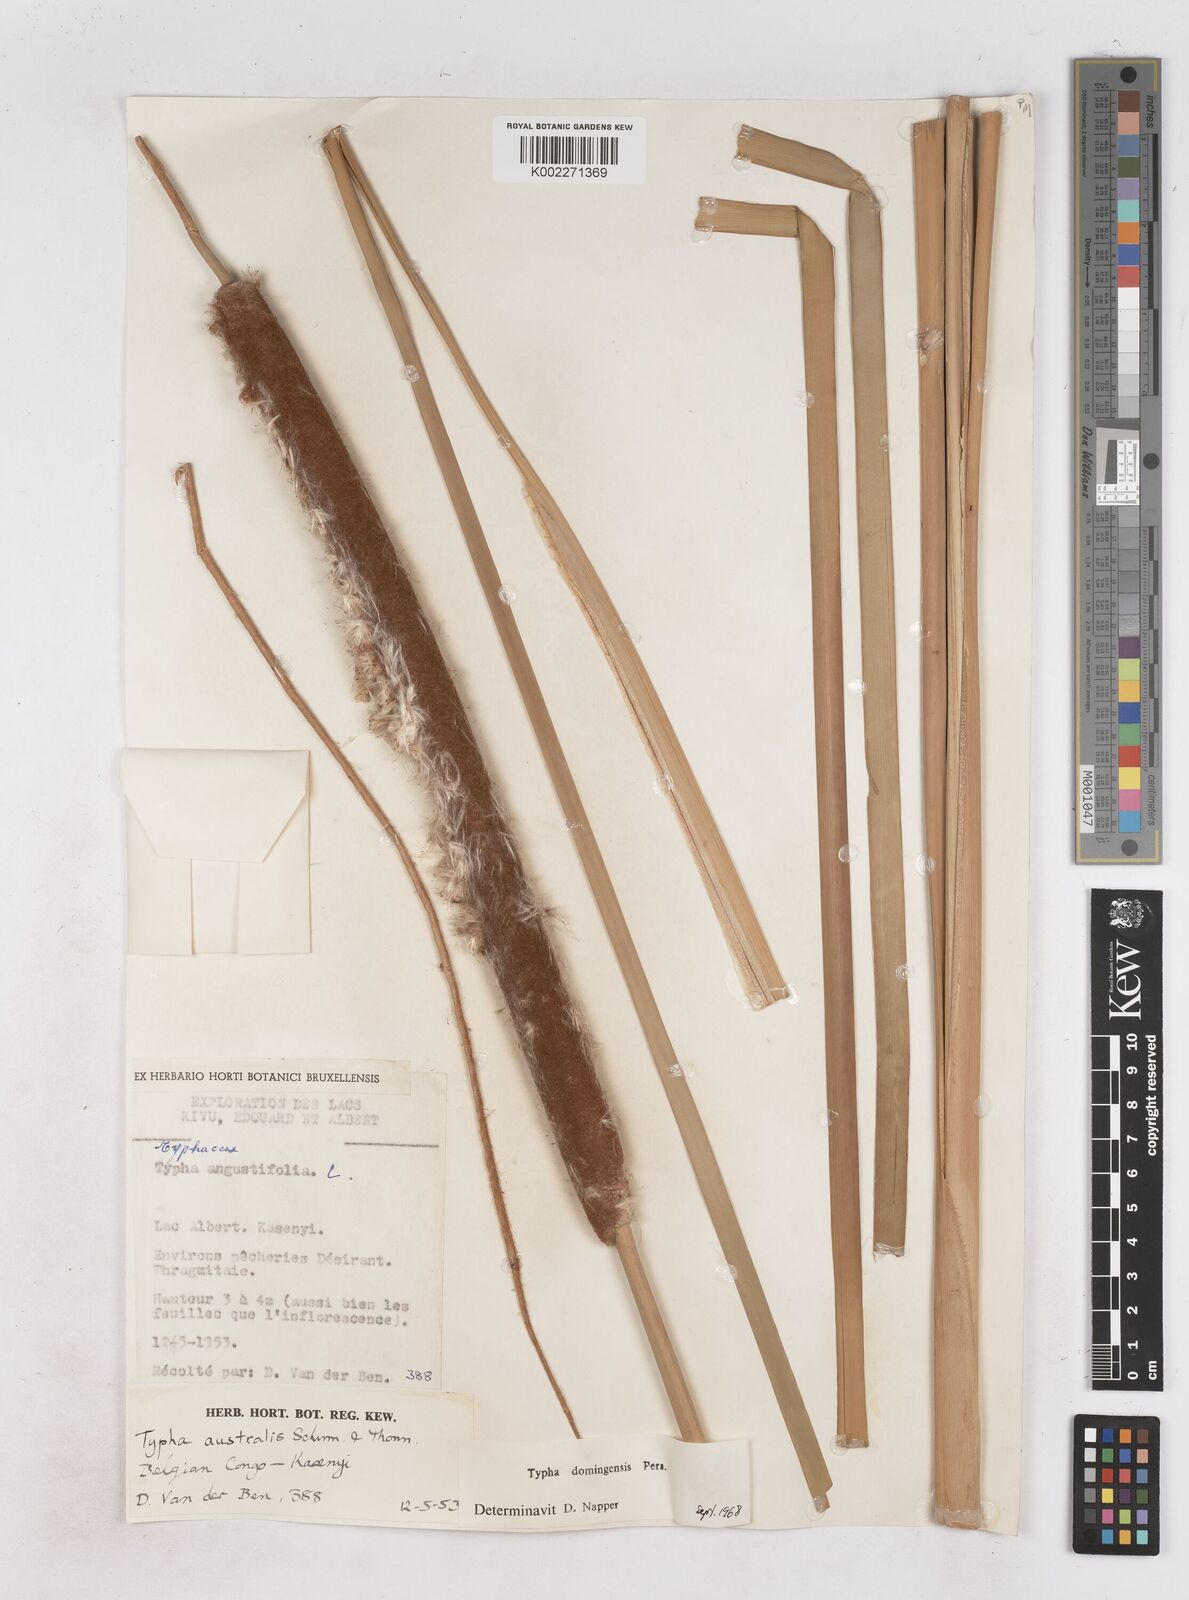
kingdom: Plantae
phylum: Tracheophyta
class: Liliopsida
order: Poales
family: Typhaceae
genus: Typha
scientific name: Typha domingensis
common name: Southern cattail
